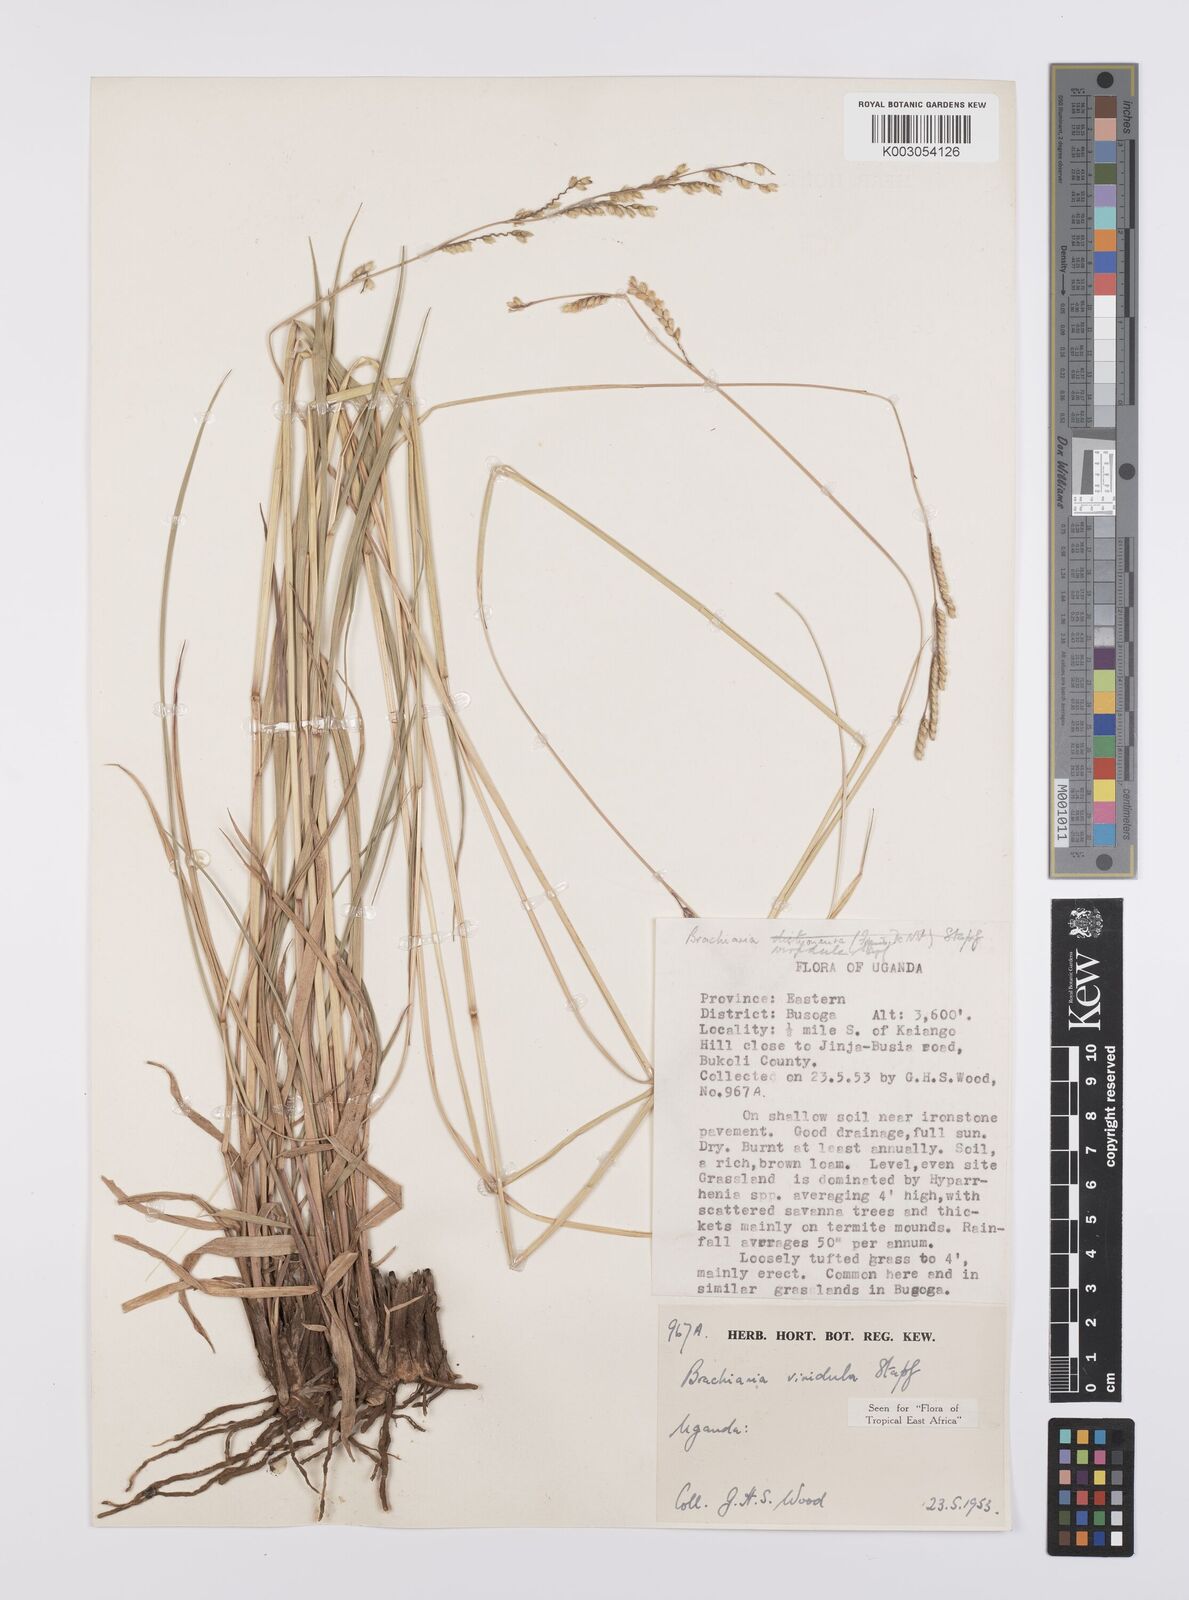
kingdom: Plantae
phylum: Tracheophyta
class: Liliopsida
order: Poales
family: Poaceae
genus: Urochloa
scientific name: Urochloa bovonei
